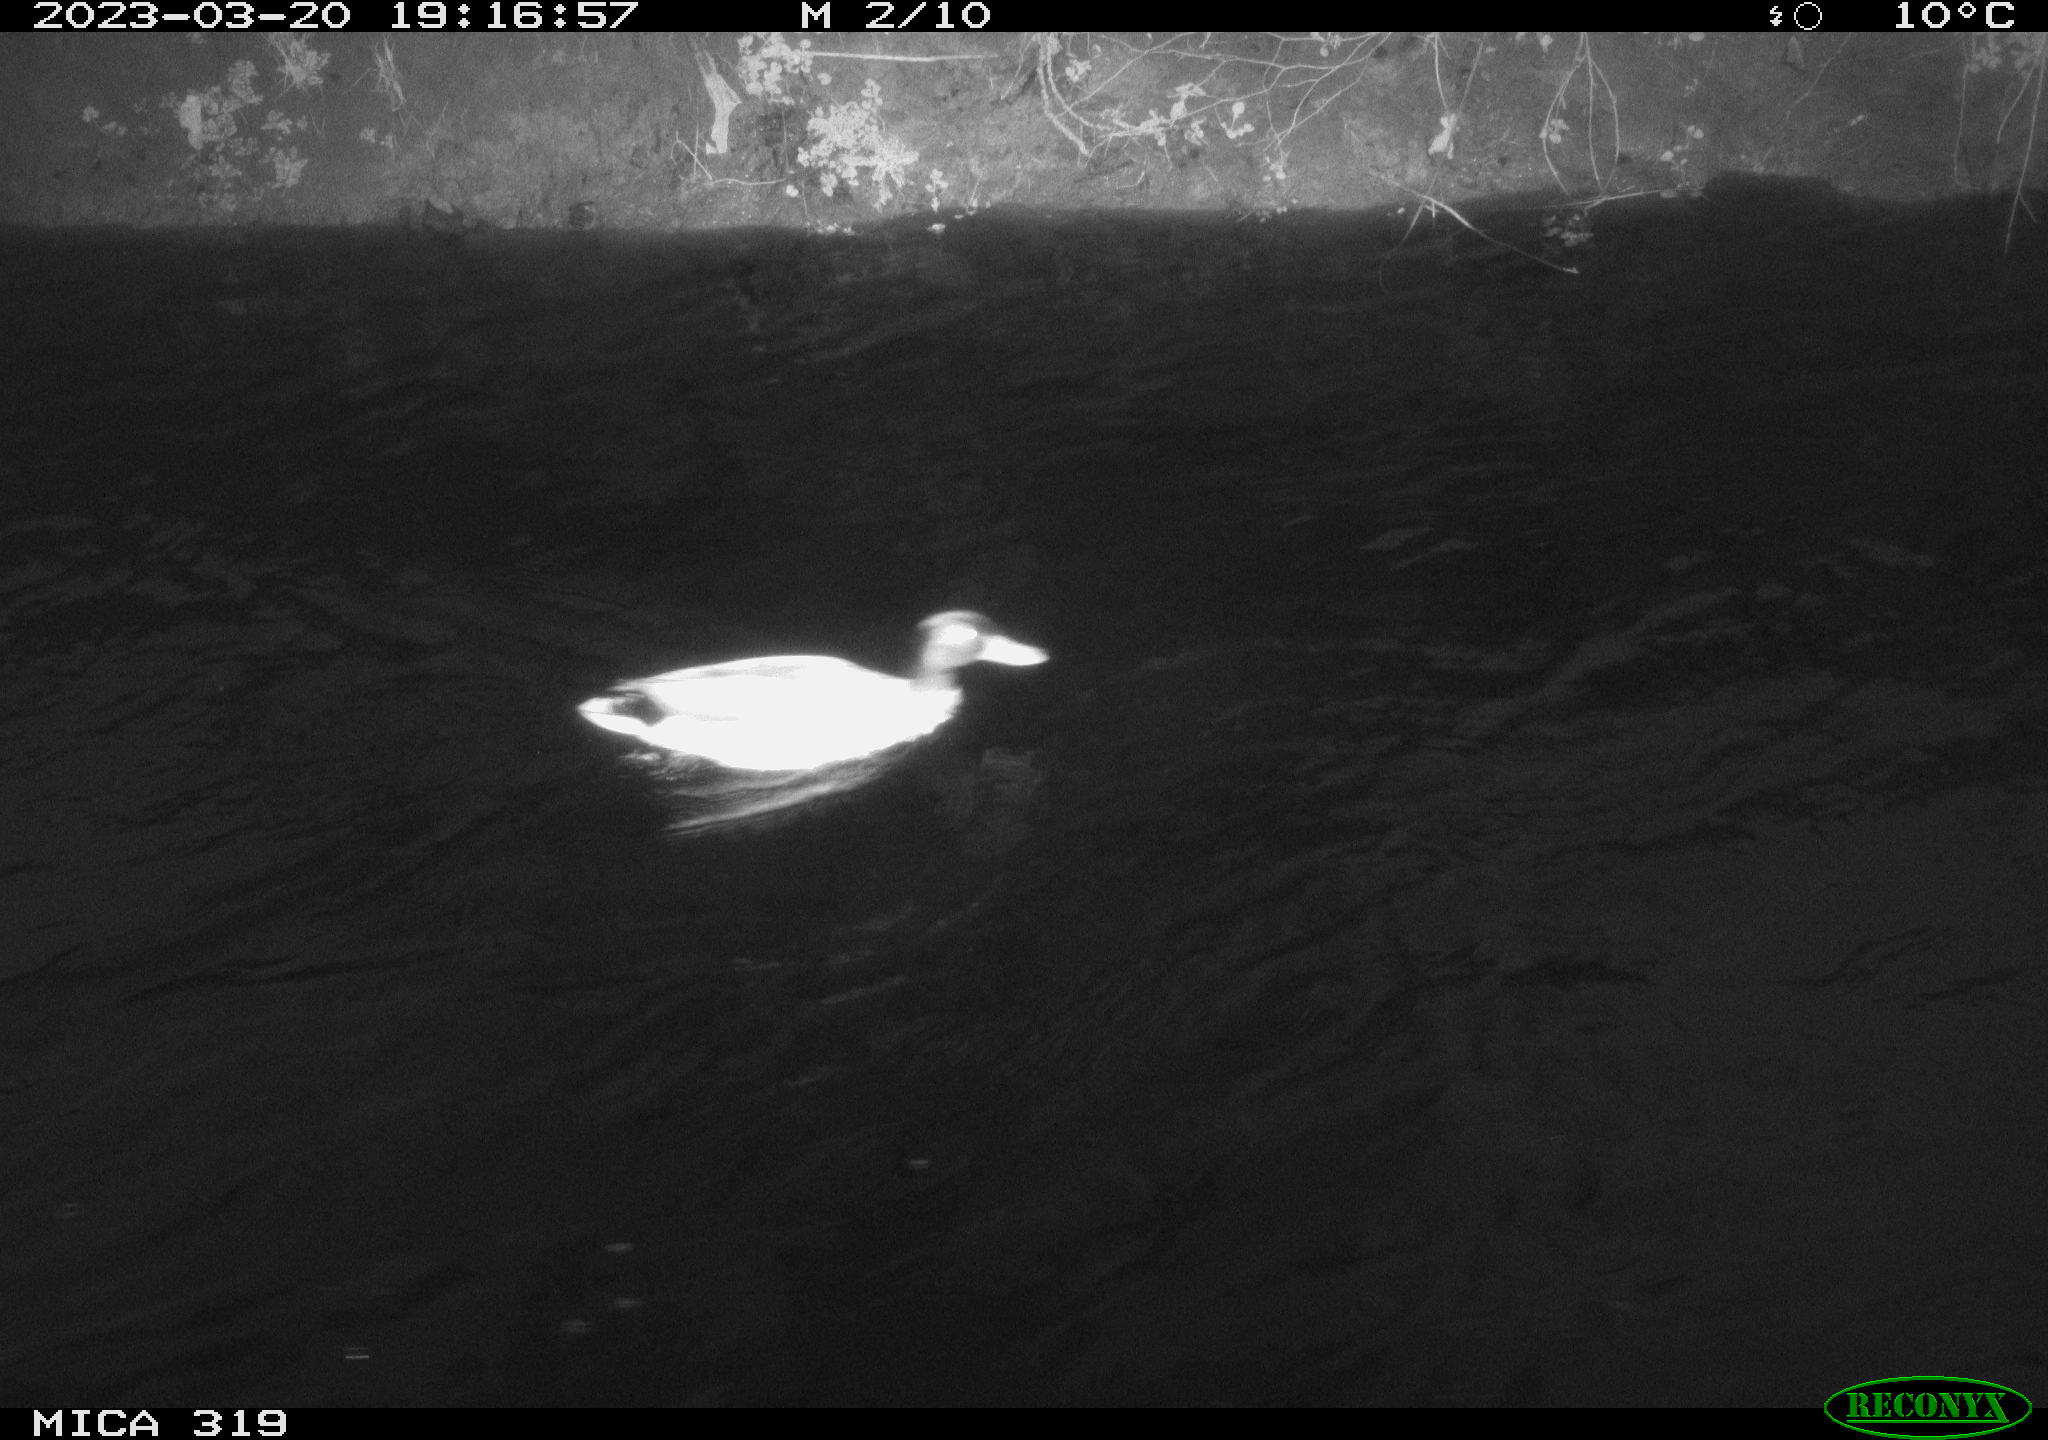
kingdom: Animalia
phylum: Chordata
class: Aves
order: Anseriformes
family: Anatidae
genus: Anas
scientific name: Anas
